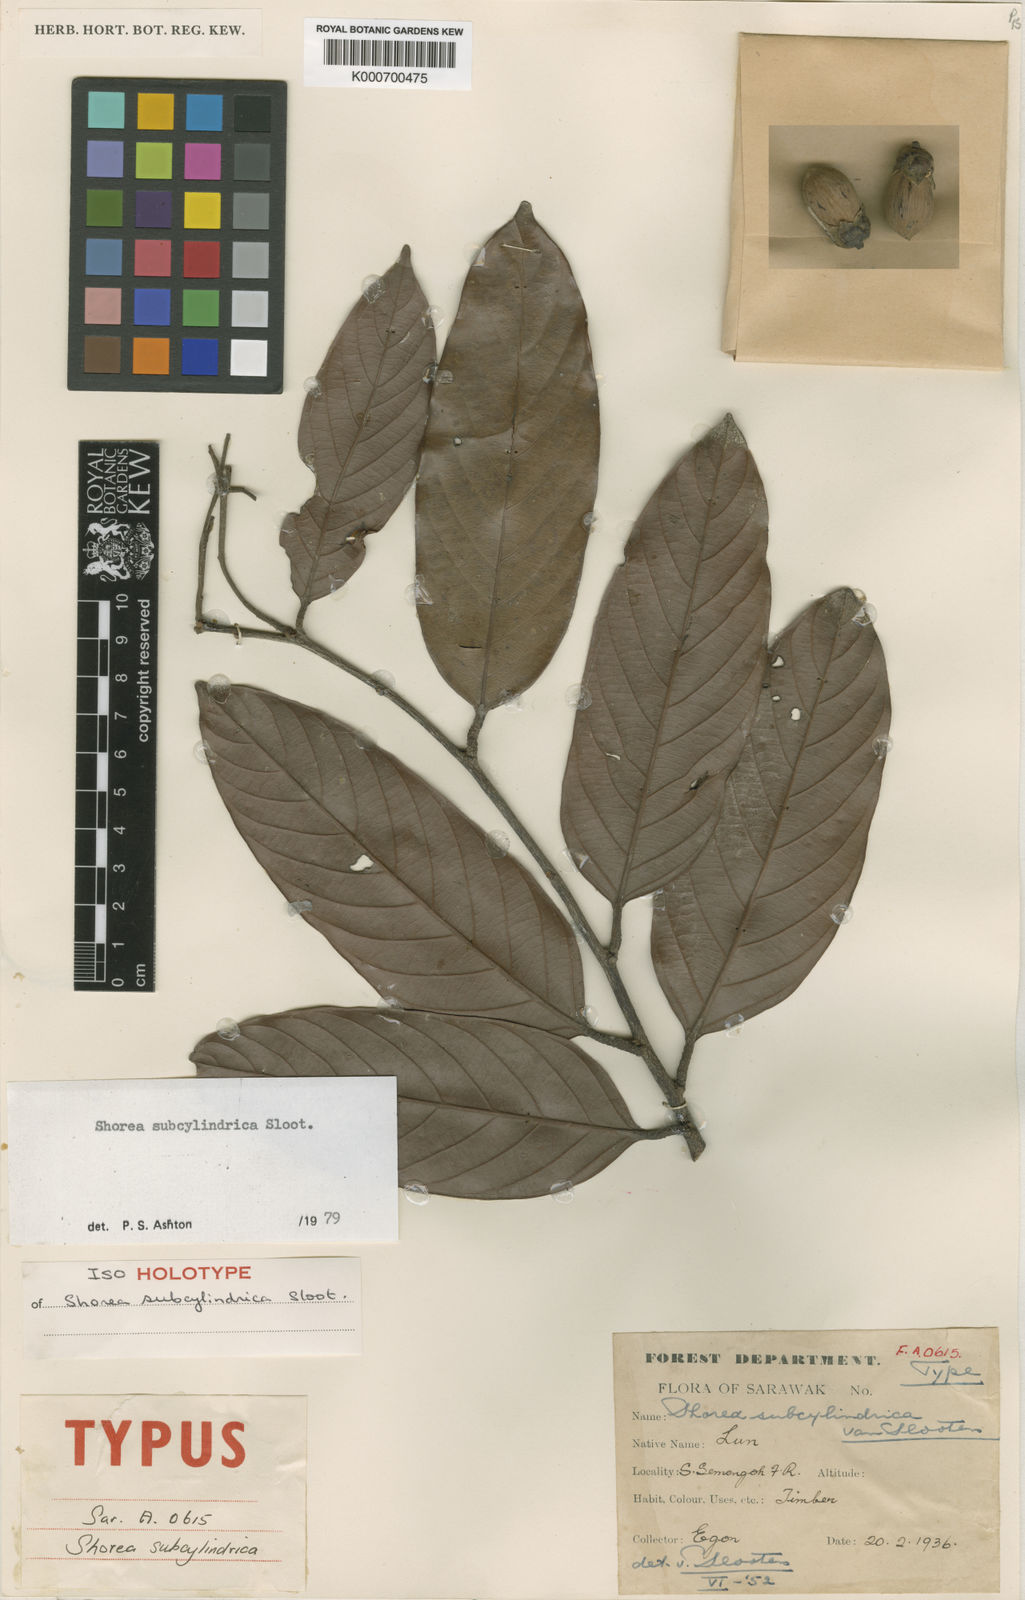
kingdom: Plantae
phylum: Tracheophyta
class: Magnoliopsida
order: Malvales
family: Dipterocarpaceae
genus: Shorea
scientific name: Shorea subcylindrica
